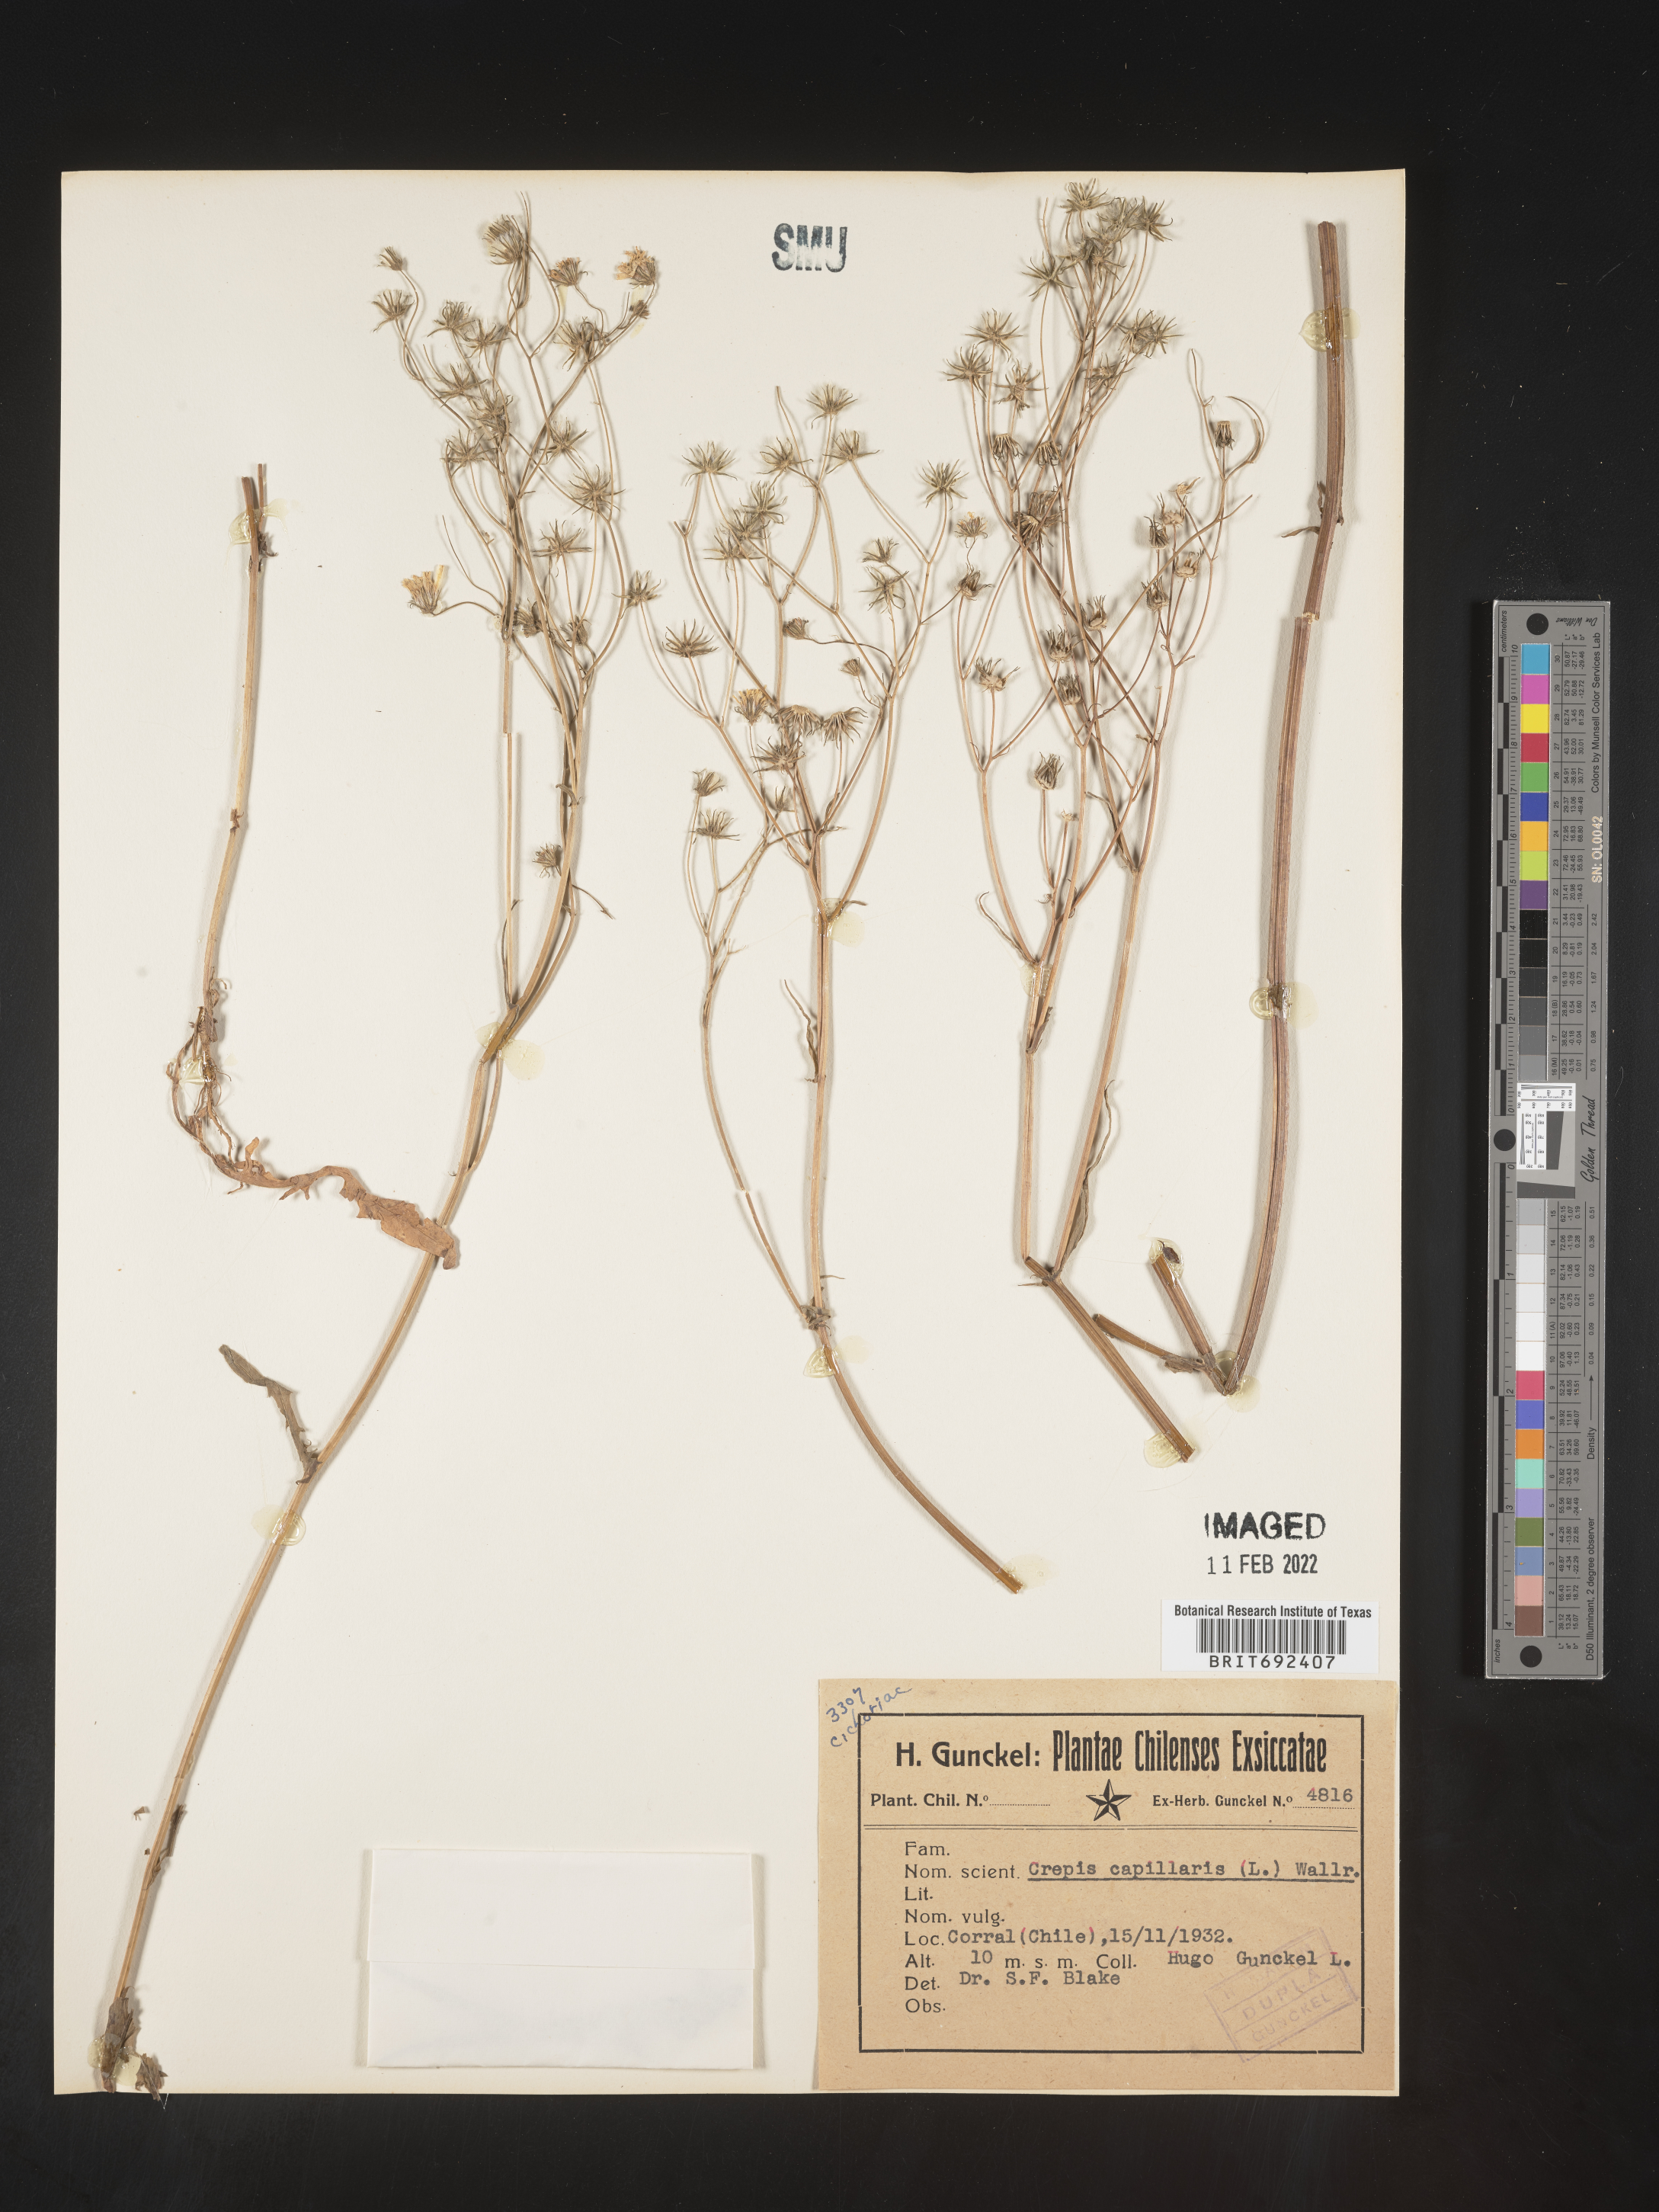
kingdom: Plantae
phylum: Tracheophyta
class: Magnoliopsida
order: Asterales
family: Asteraceae
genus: Crepis
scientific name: Crepis
